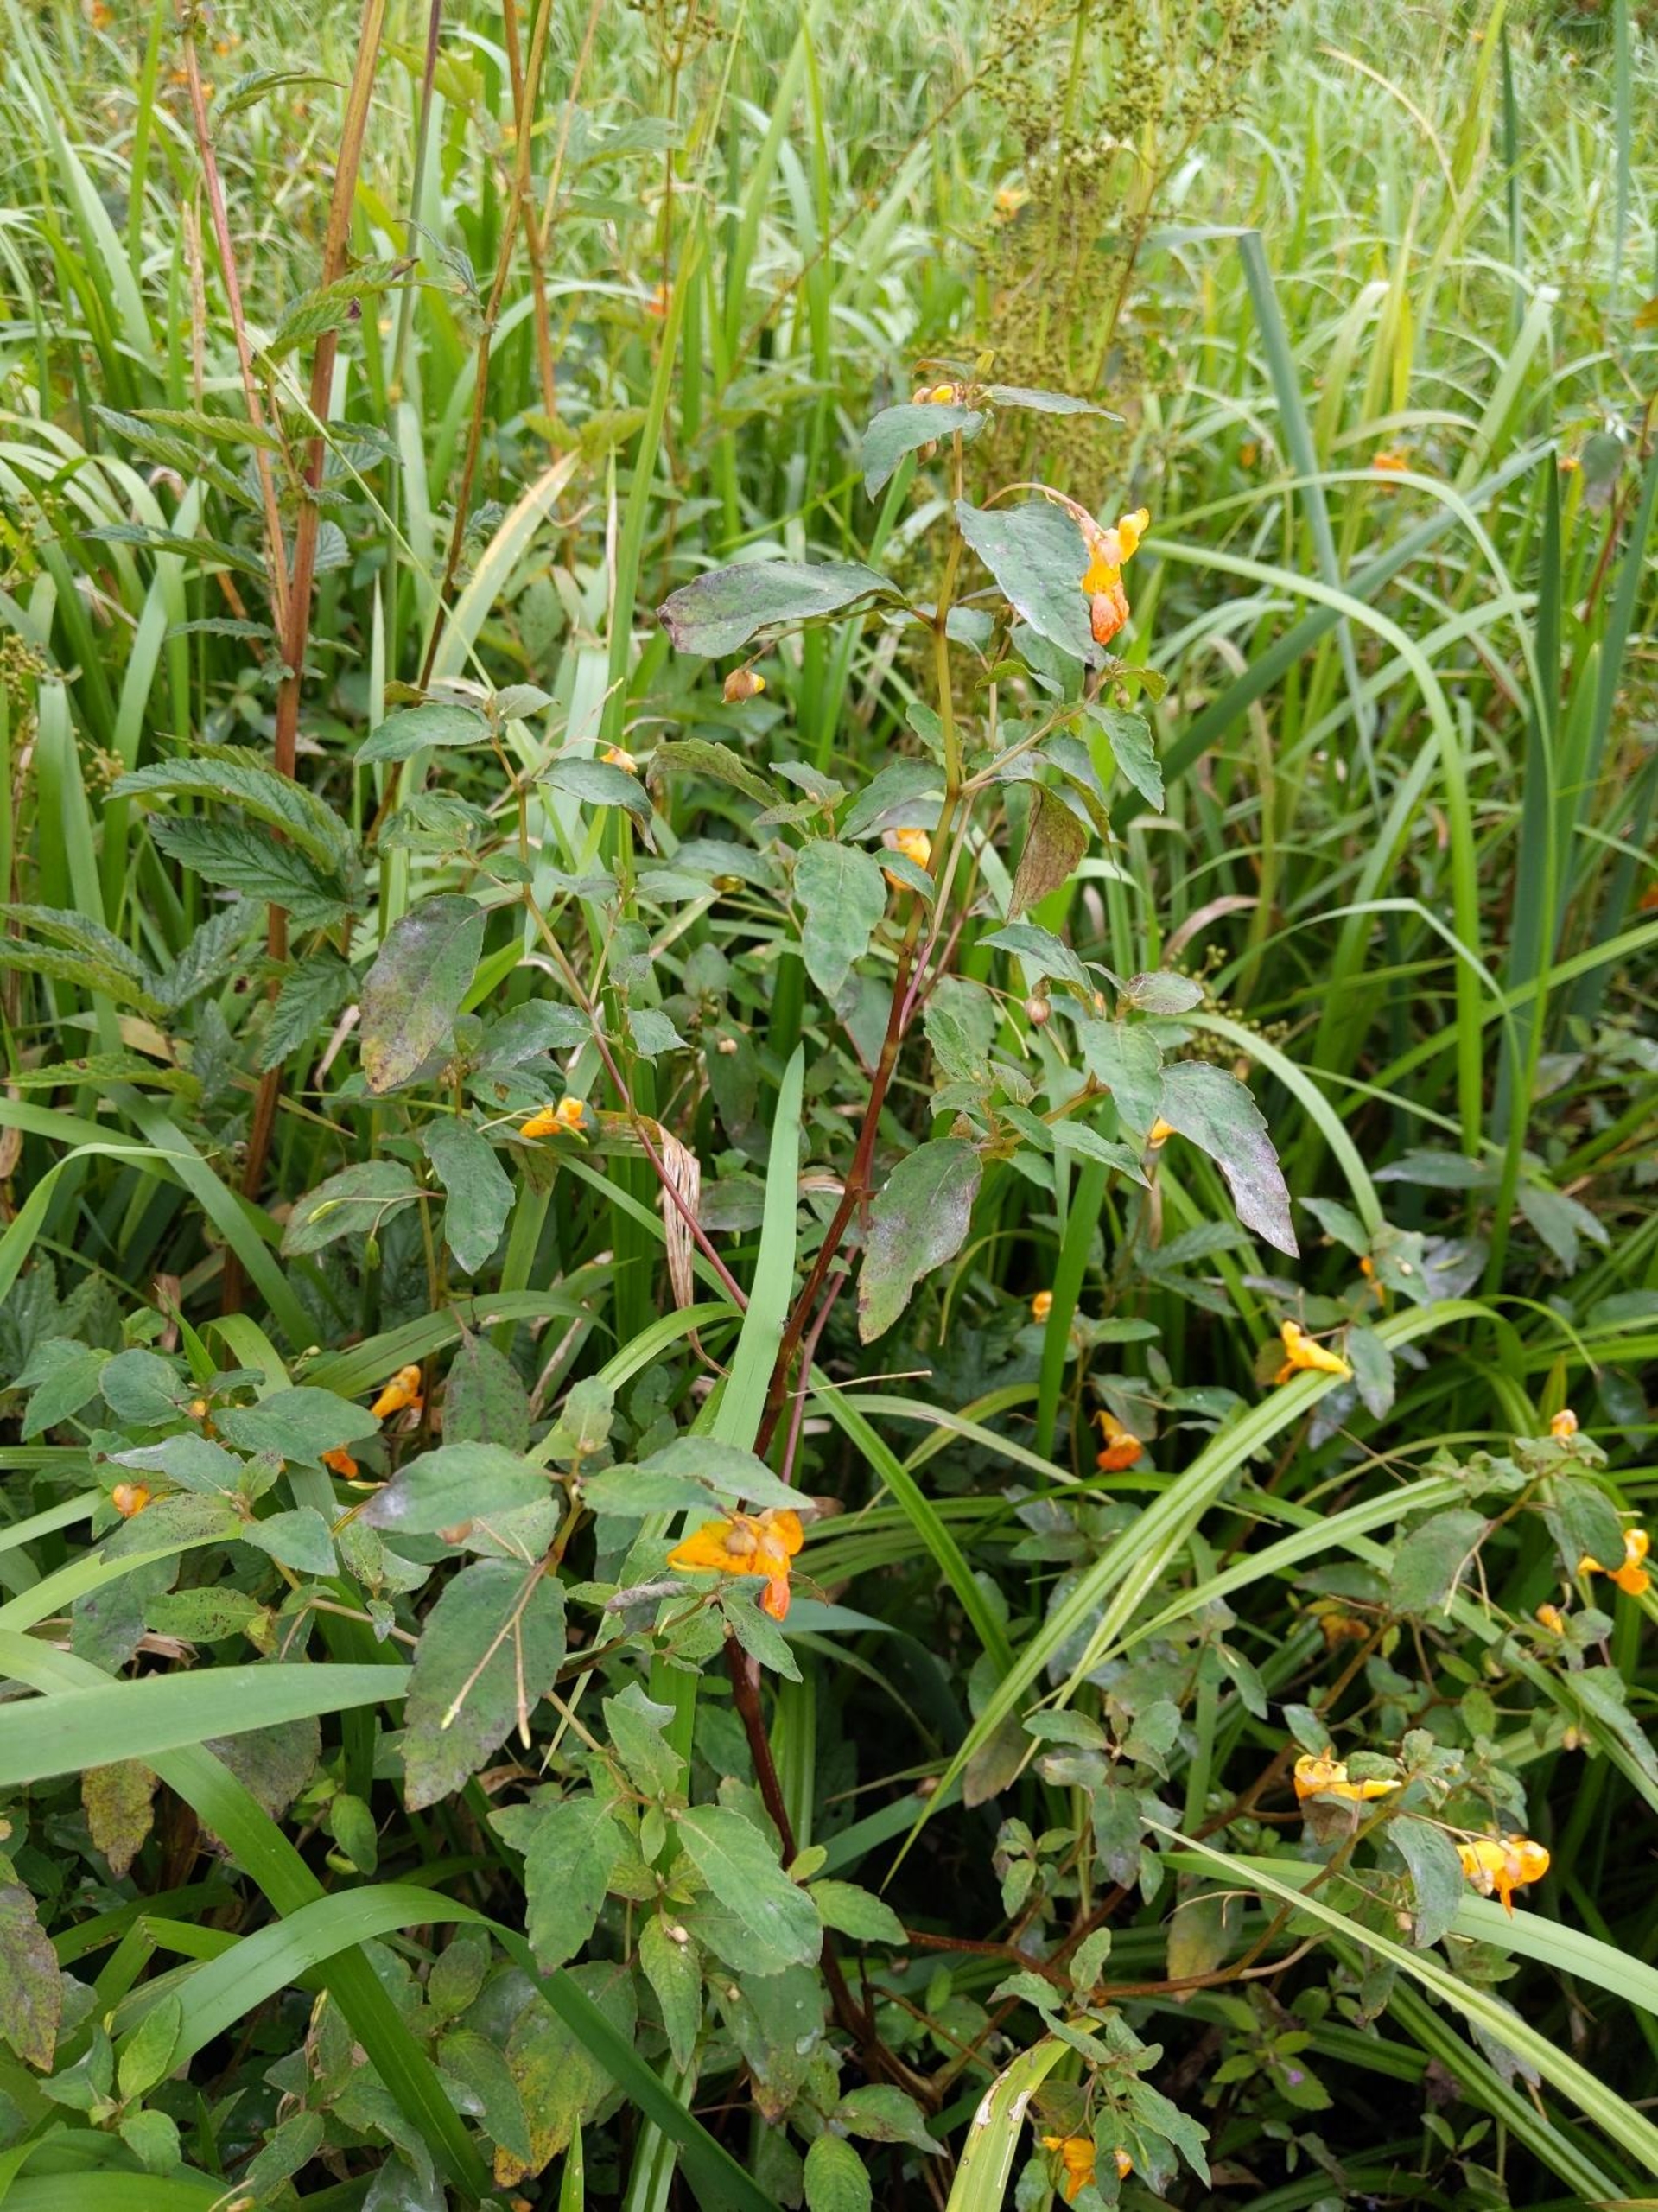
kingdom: Plantae
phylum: Tracheophyta
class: Magnoliopsida
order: Ericales
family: Balsaminaceae
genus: Impatiens
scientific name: Impatiens capensis
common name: Orange-balsamin
